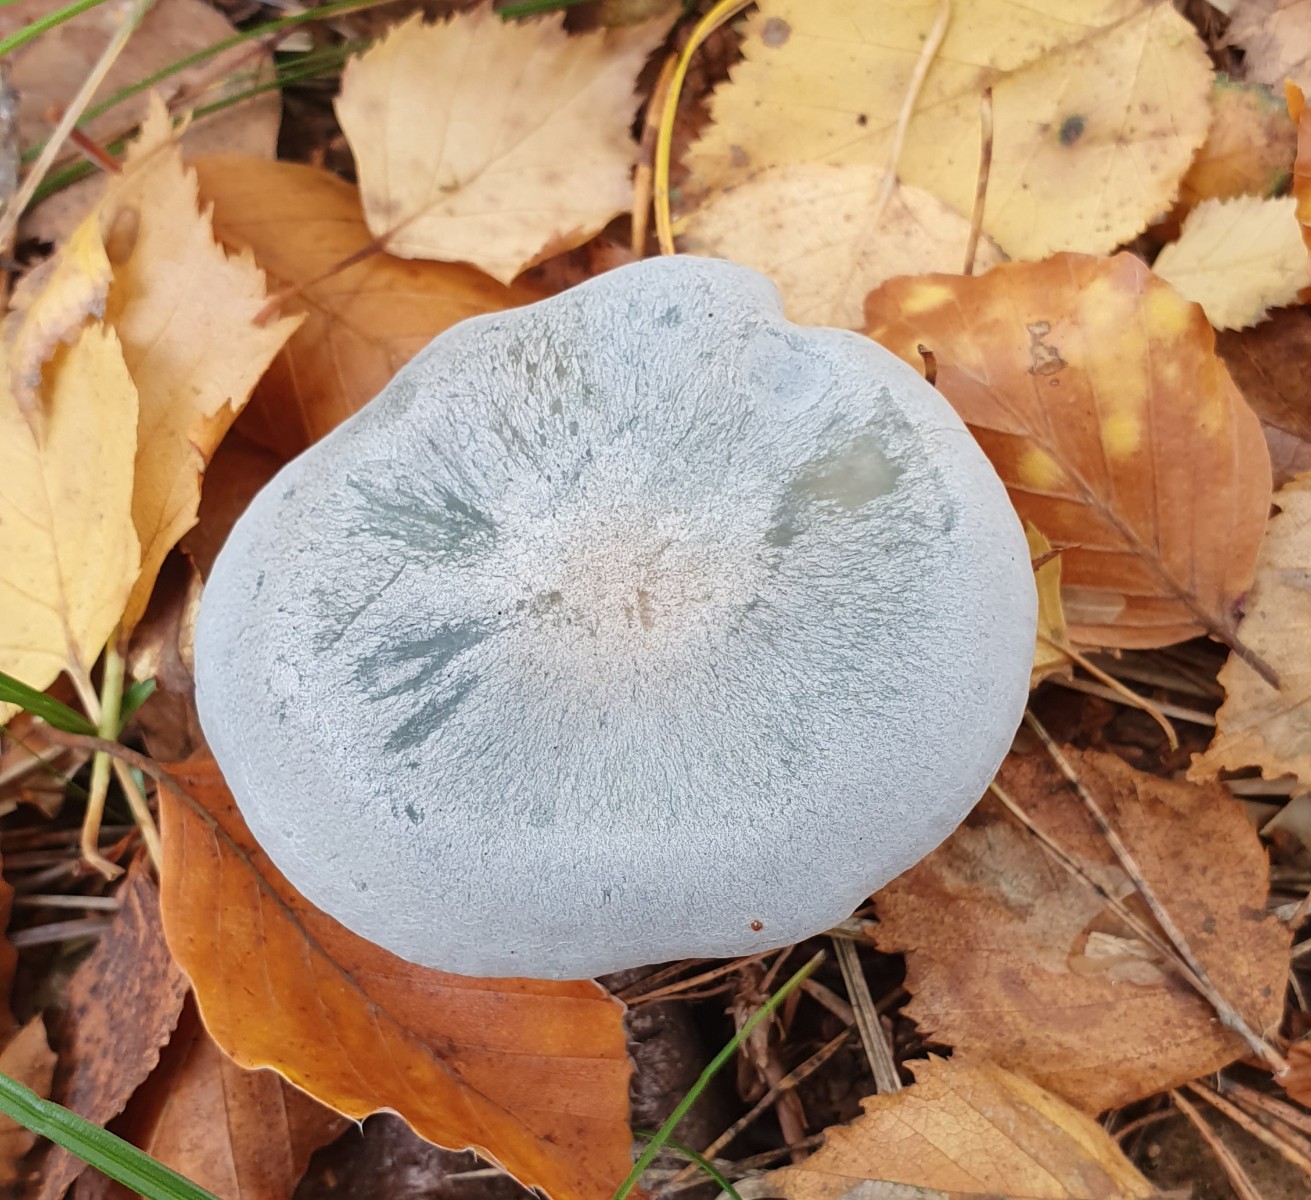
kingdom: Fungi
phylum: Basidiomycota
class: Agaricomycetes
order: Agaricales
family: Tricholomataceae
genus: Clitocybe
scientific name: Clitocybe odora
